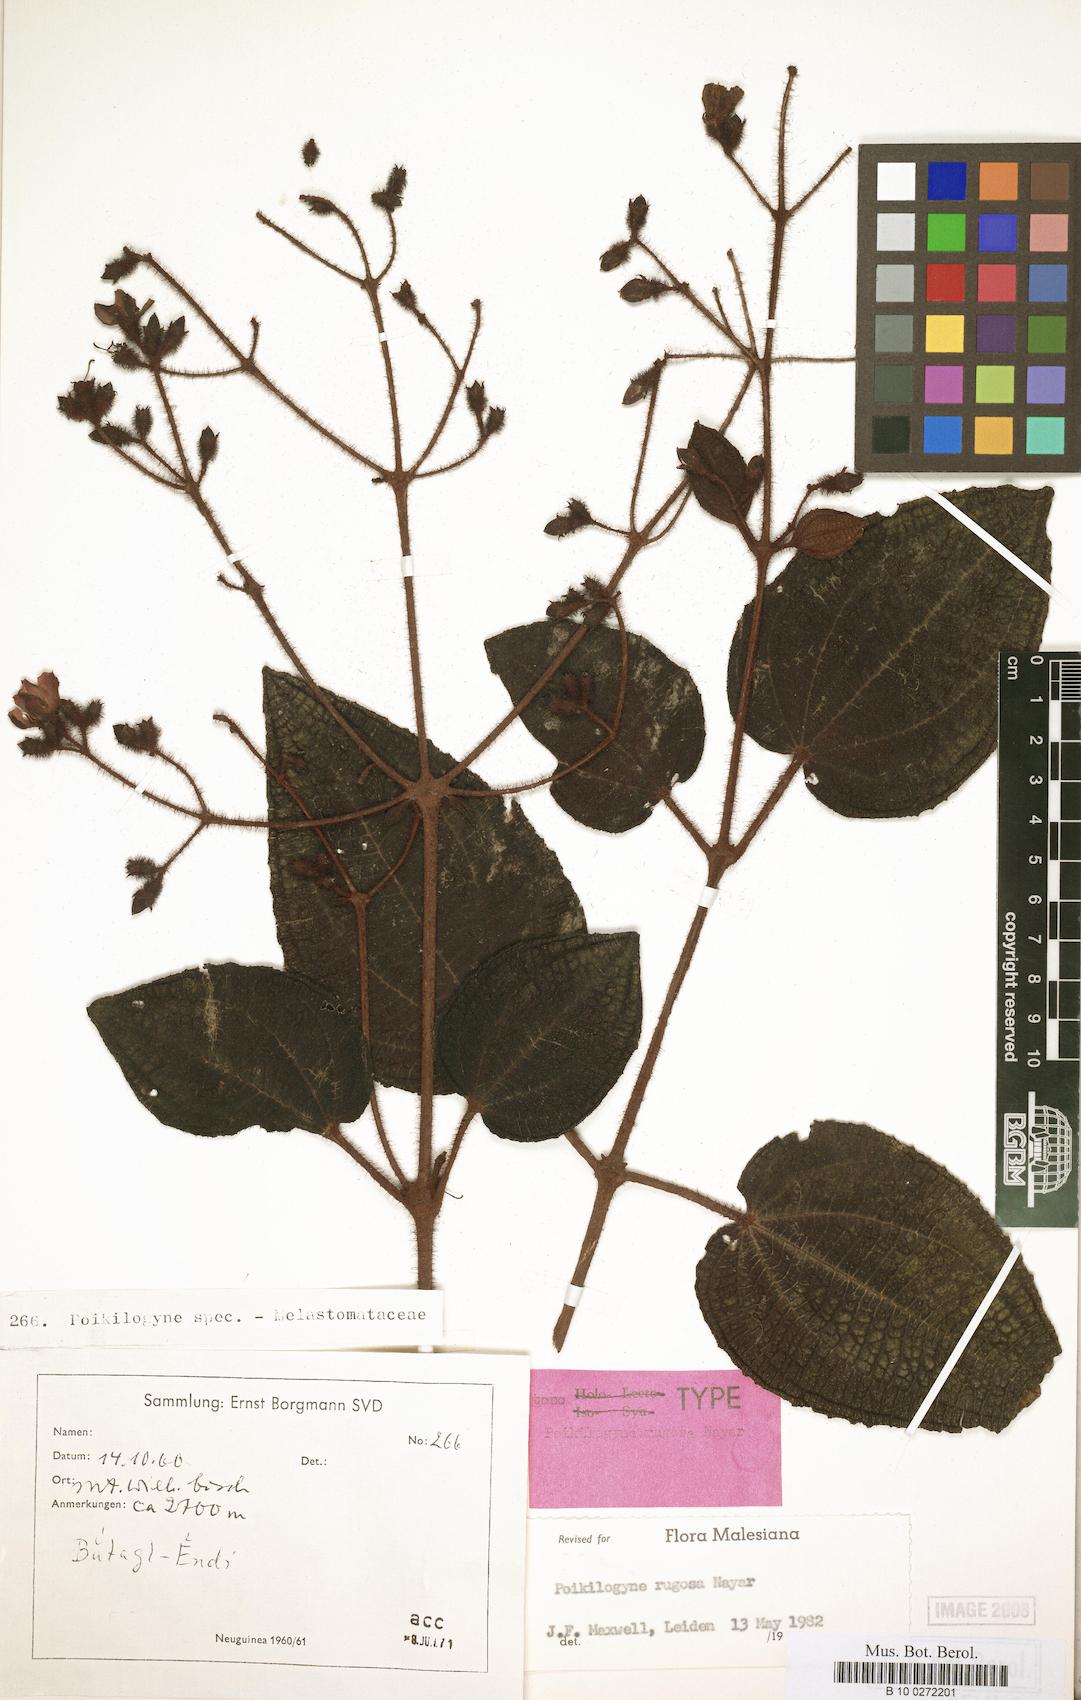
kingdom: Plantae
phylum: Tracheophyta
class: Magnoliopsida
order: Myrtales
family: Melastomataceae
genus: Poikilogyne
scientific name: Poikilogyne rugosa
